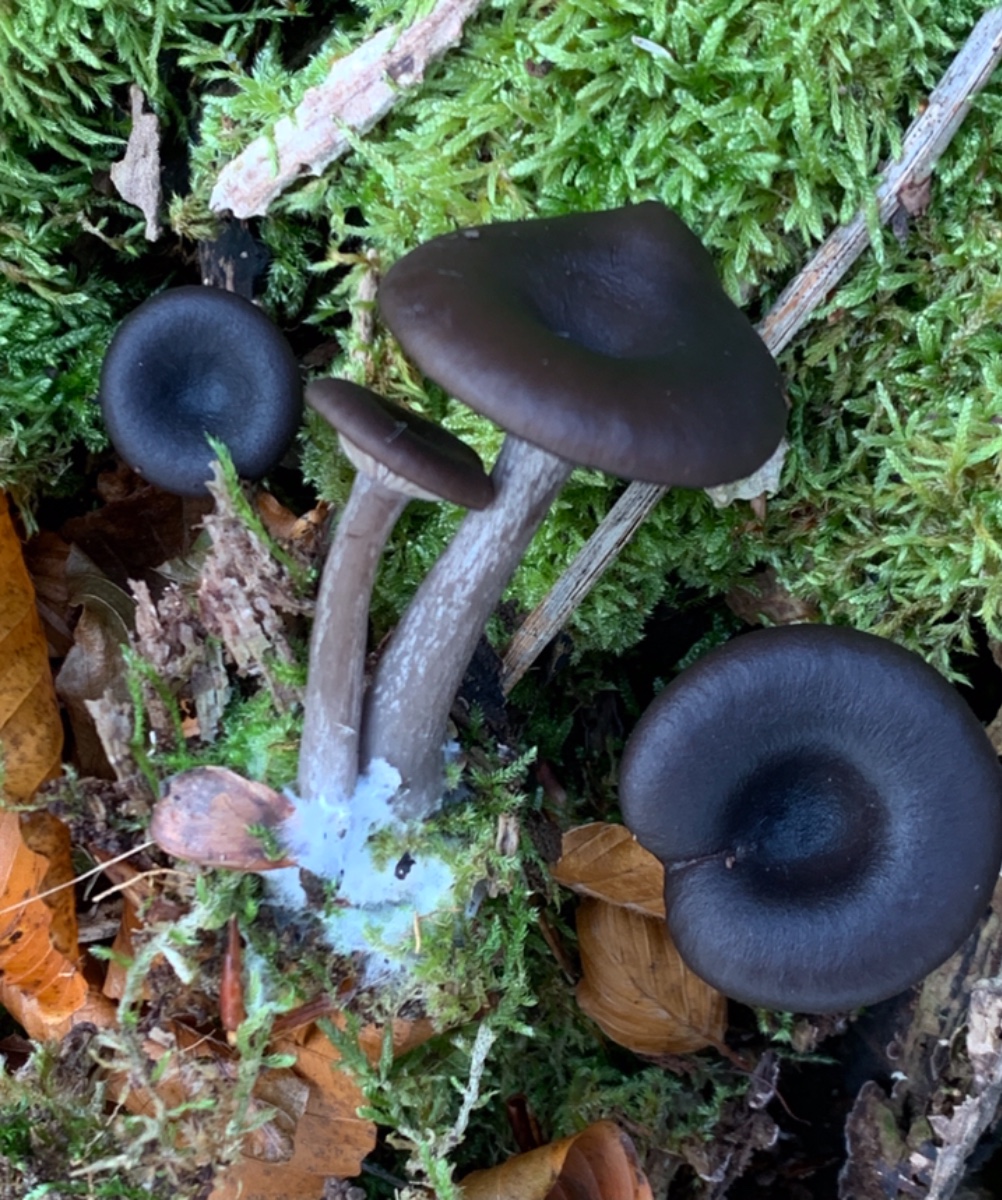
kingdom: Fungi
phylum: Basidiomycota
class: Agaricomycetes
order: Agaricales
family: Pseudoclitocybaceae
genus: Pseudoclitocybe
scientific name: Pseudoclitocybe cyathiformis
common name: almindelig bægertragthat
